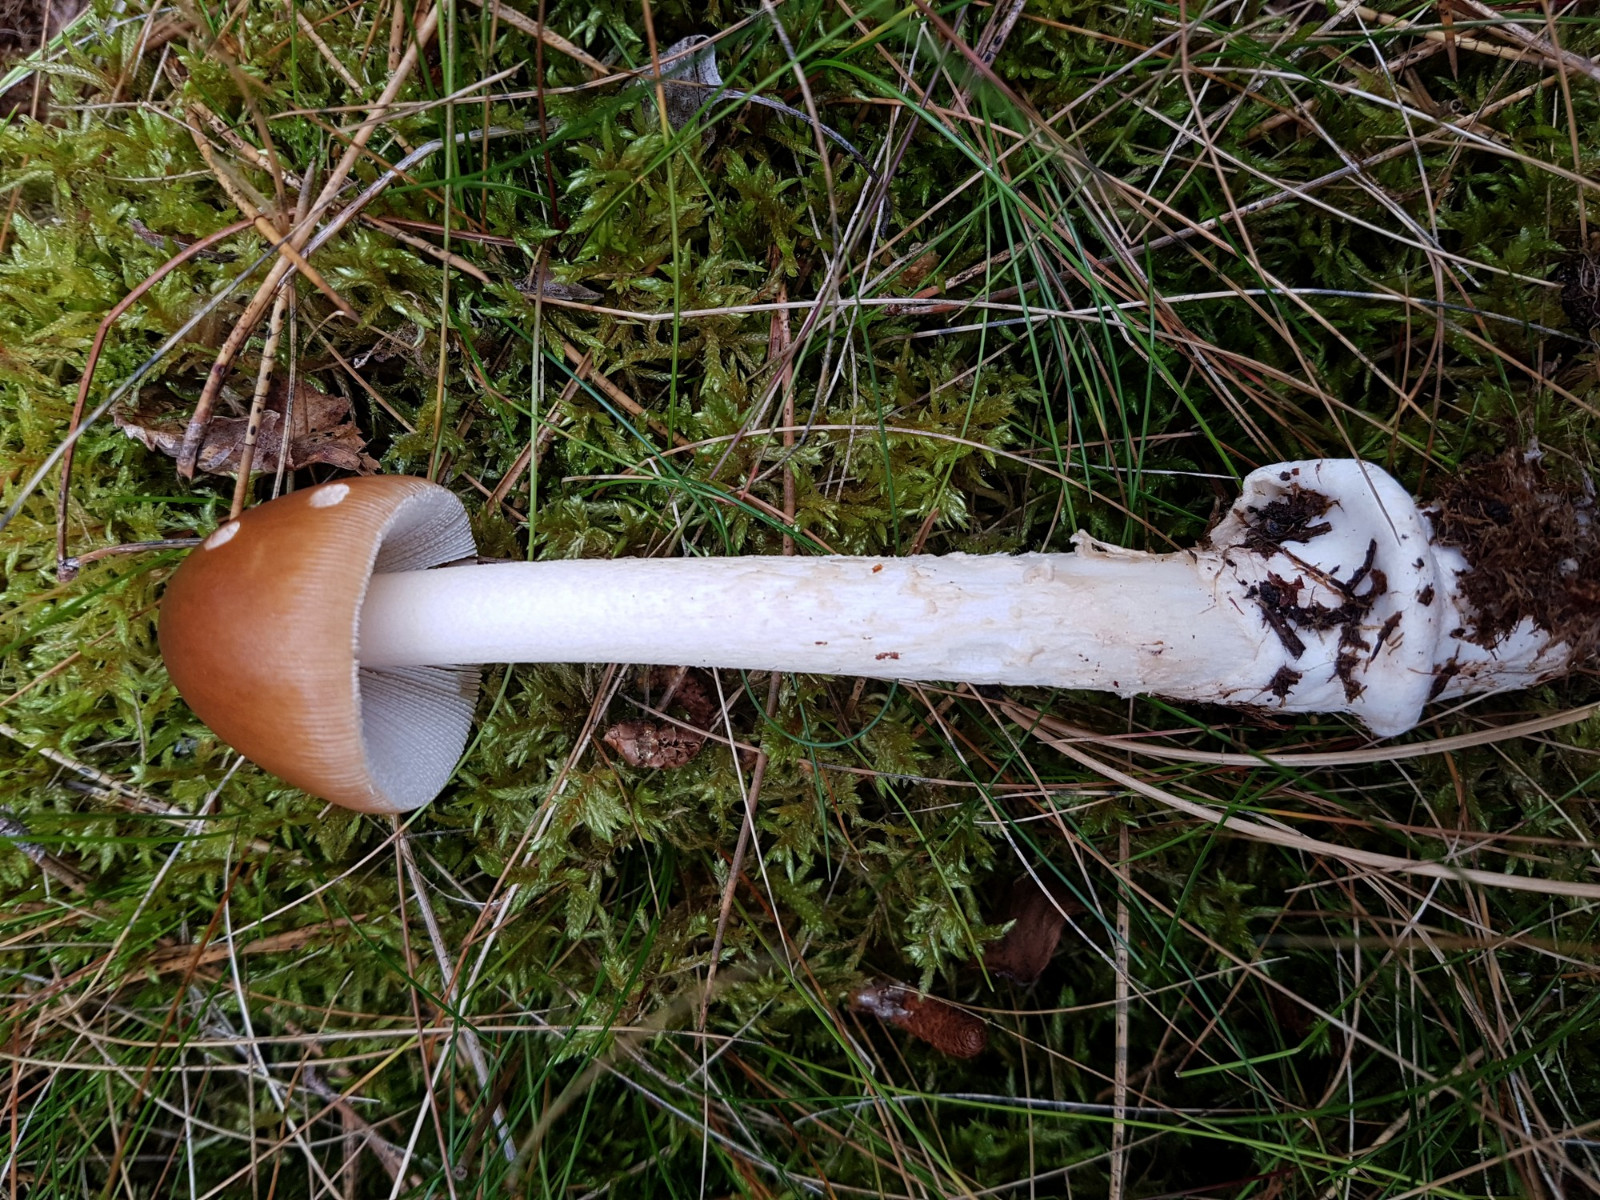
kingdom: Fungi
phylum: Basidiomycota
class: Agaricomycetes
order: Agaricales
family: Amanitaceae
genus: Amanita
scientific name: Amanita fulva
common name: brun kam-fluesvamp
